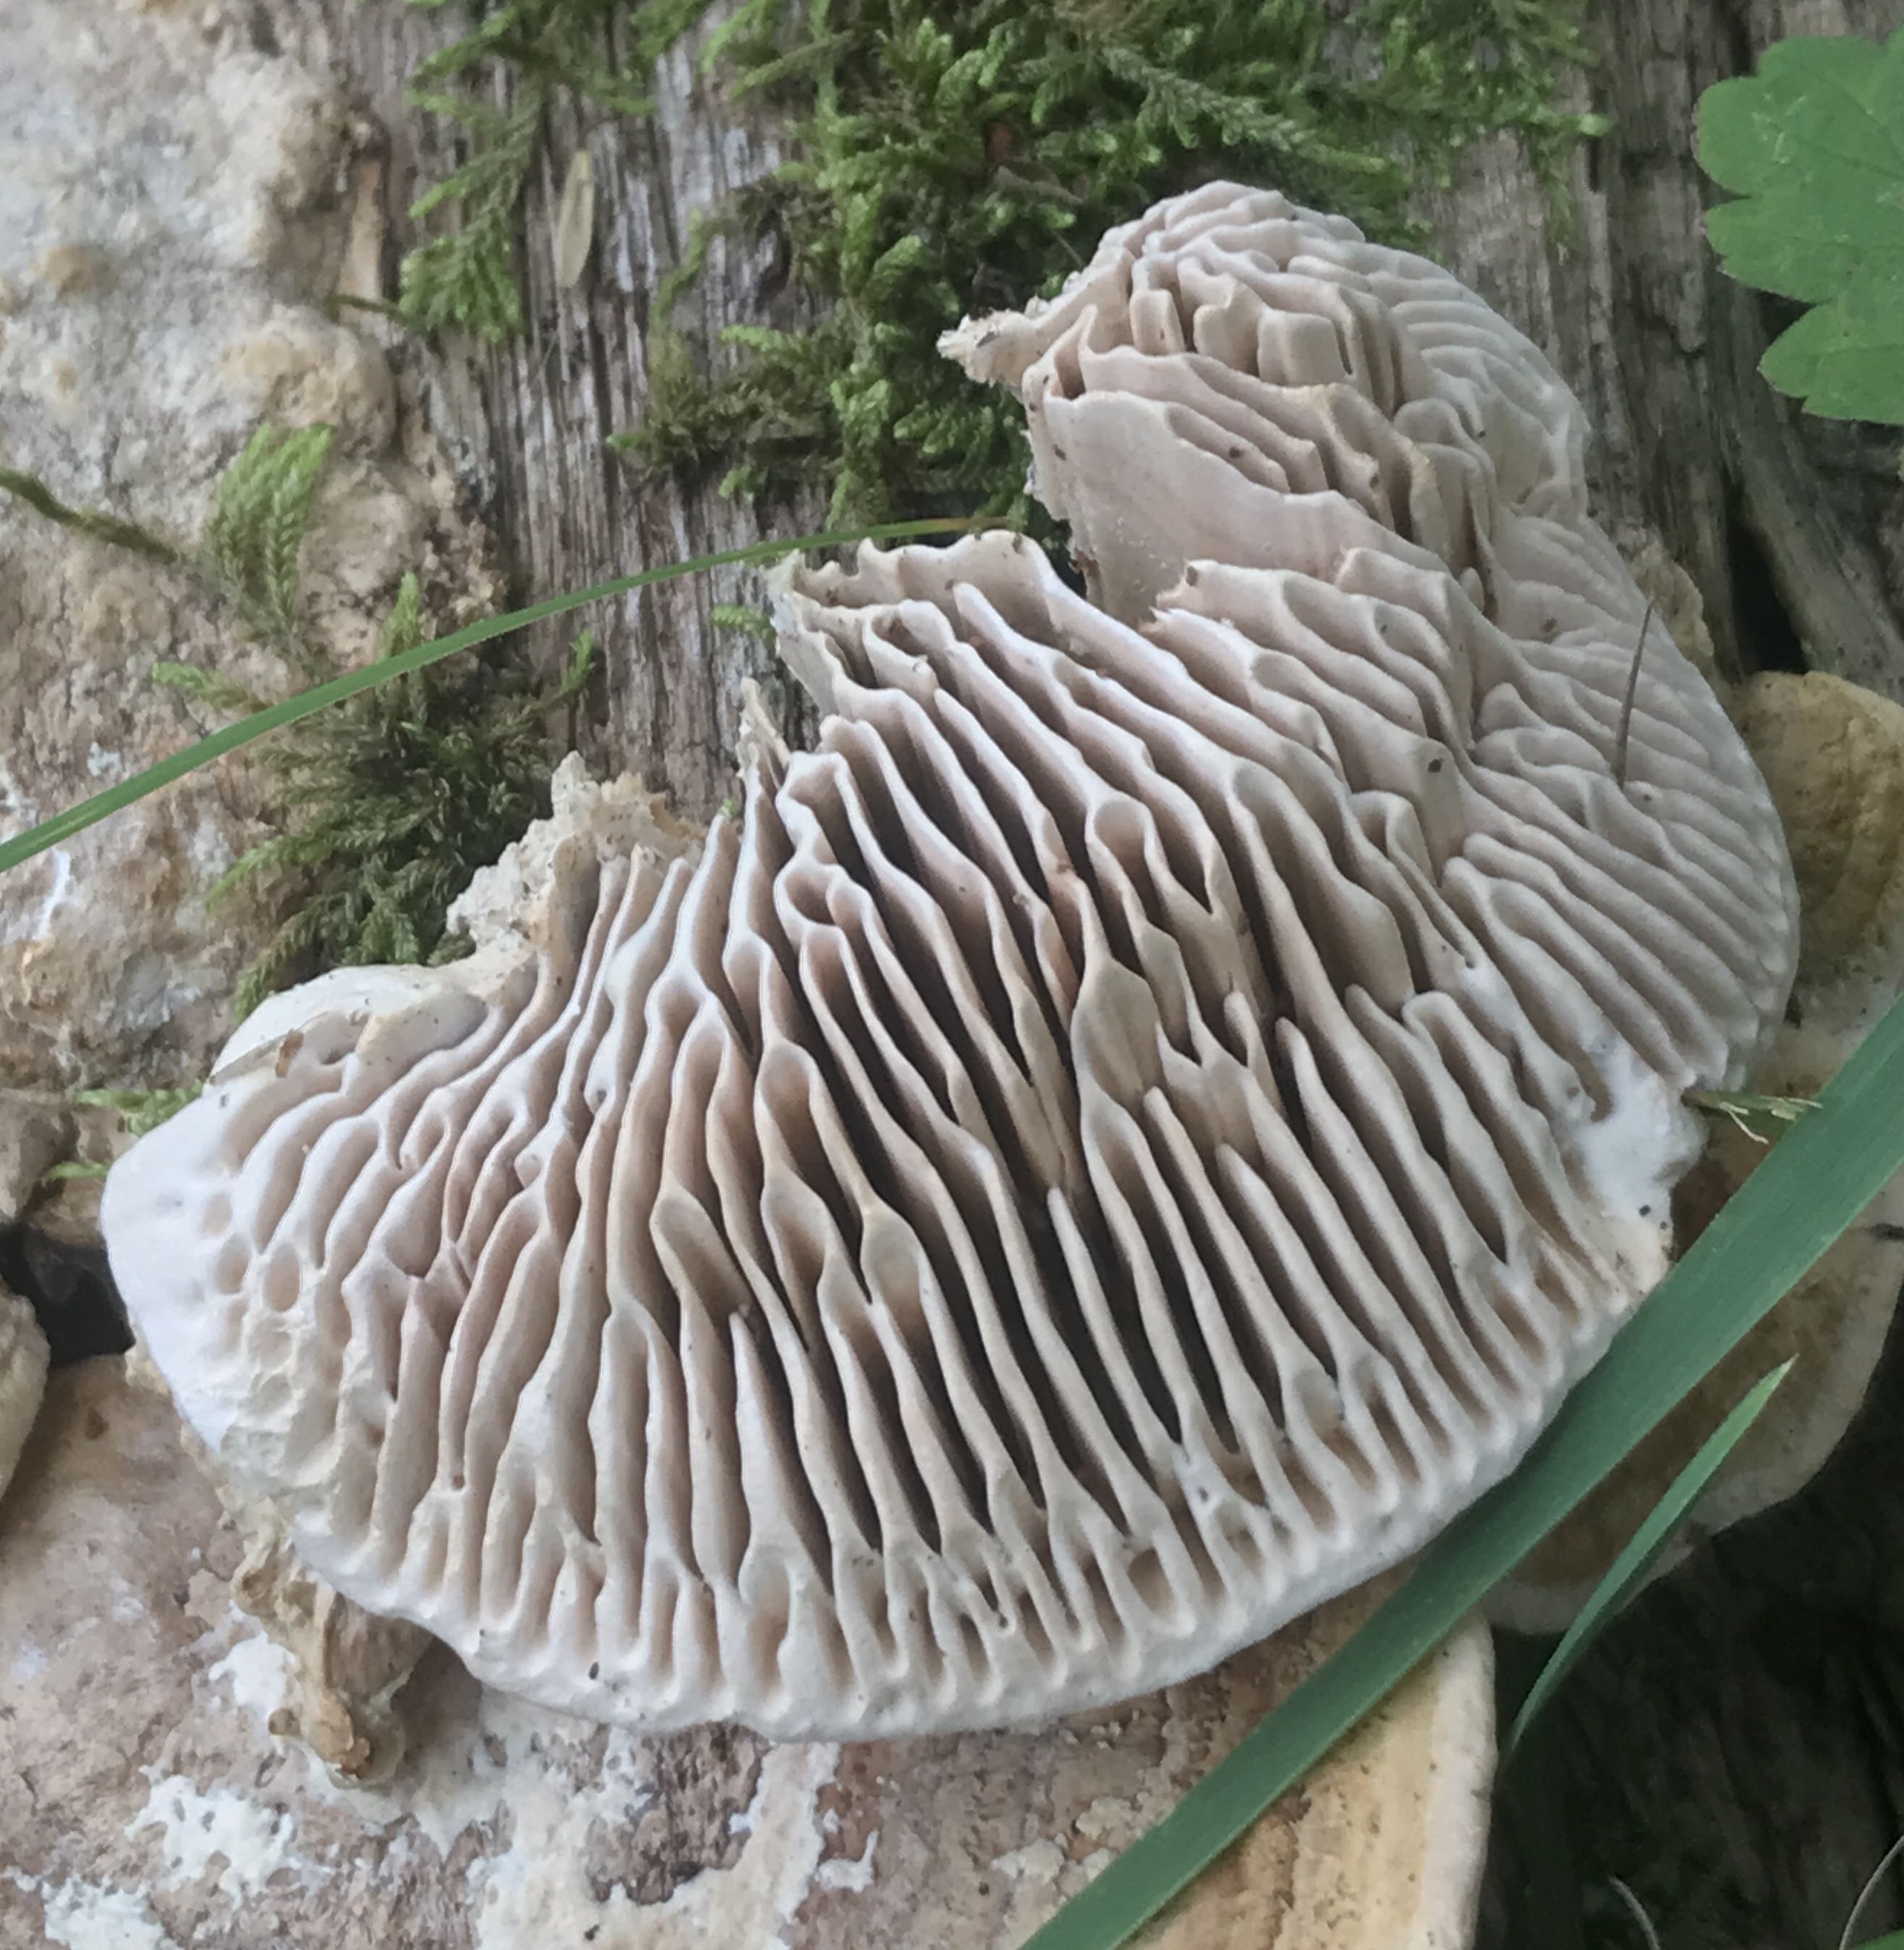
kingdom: Fungi
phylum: Basidiomycota
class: Agaricomycetes
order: Polyporales
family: Fomitopsidaceae
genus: Daedalea
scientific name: Daedalea quercina
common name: ege-labyrintsvamp
